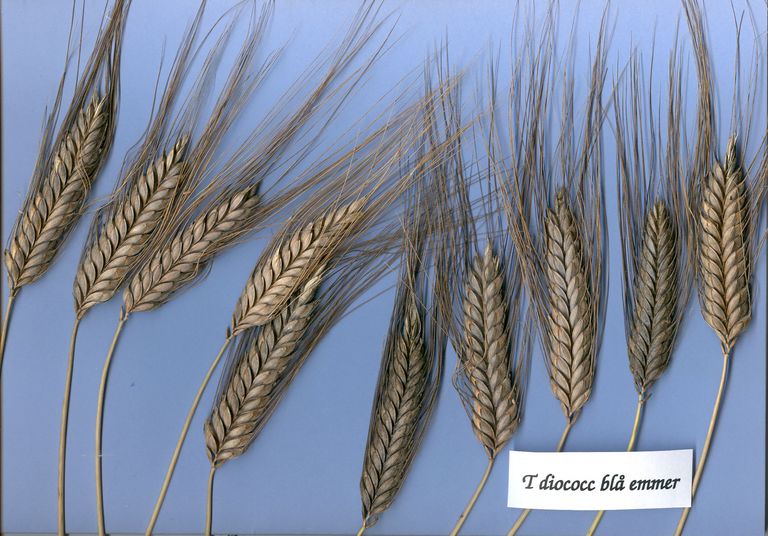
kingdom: Plantae
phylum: Tracheophyta
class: Liliopsida
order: Poales
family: Poaceae
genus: Triticum
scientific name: Triticum turgidum
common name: Rivet wheat
